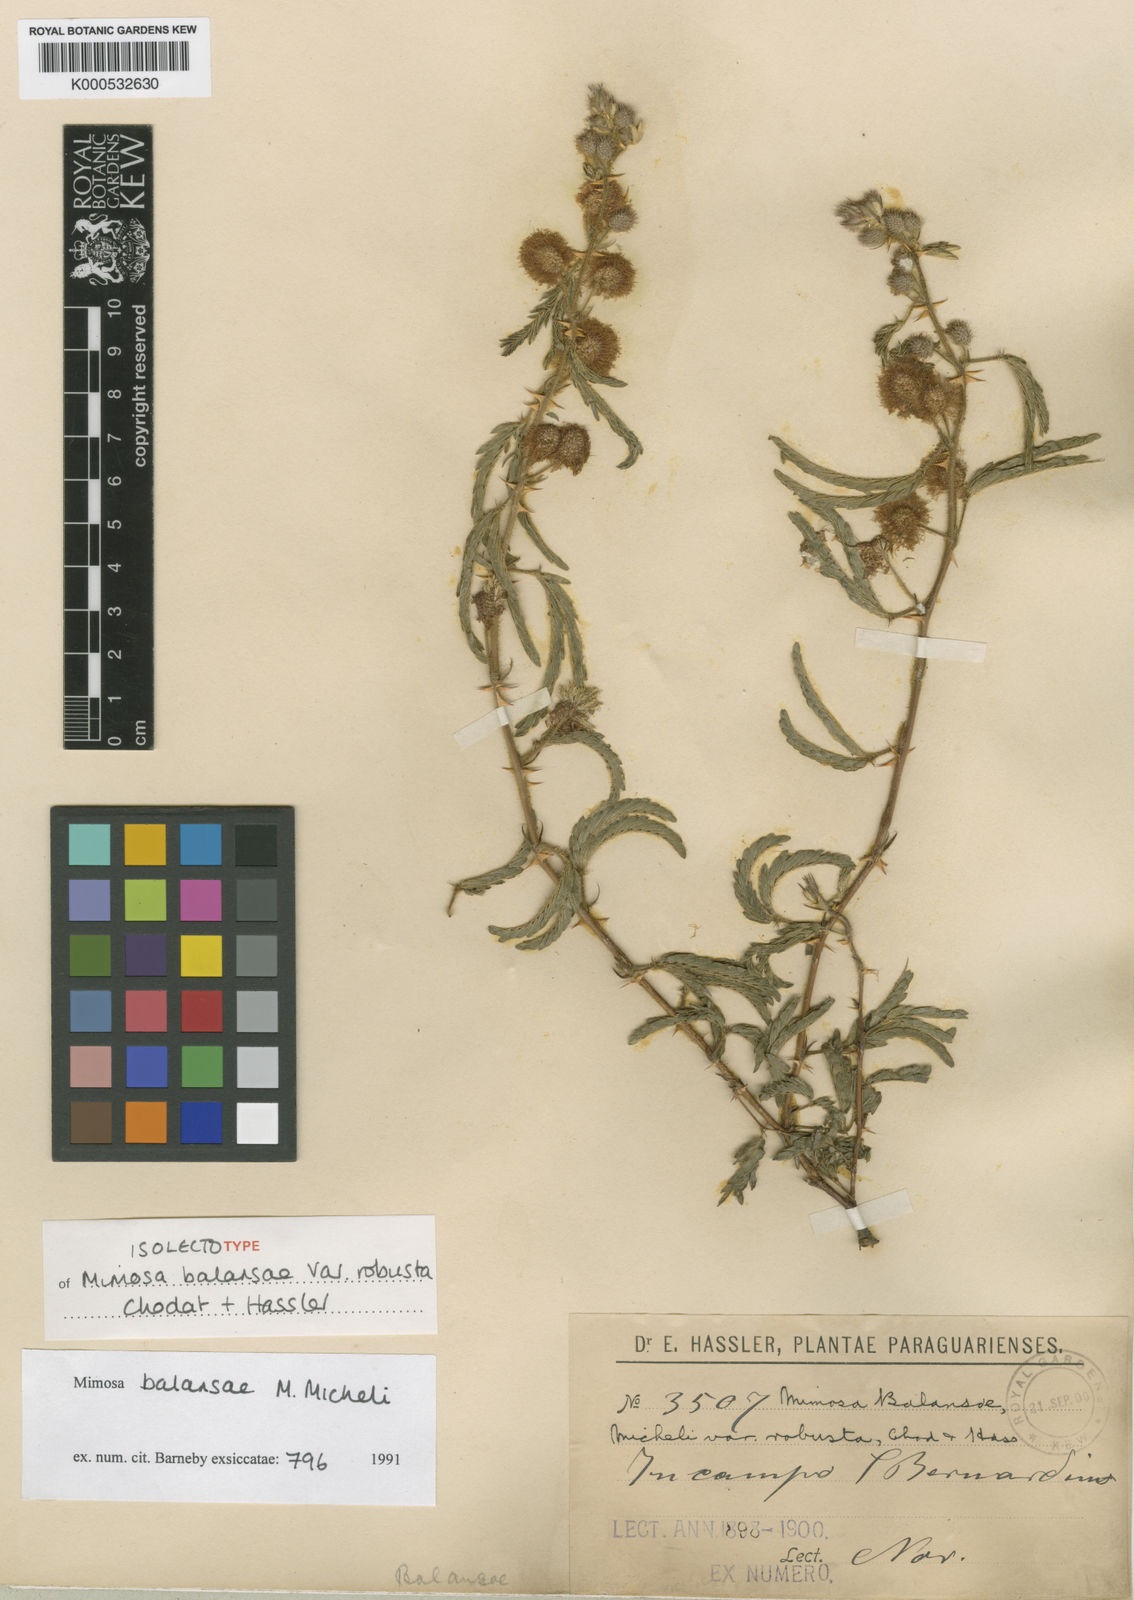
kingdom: Plantae
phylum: Tracheophyta
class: Magnoliopsida
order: Fabales
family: Fabaceae
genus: Mimosa
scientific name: Mimosa balansae
